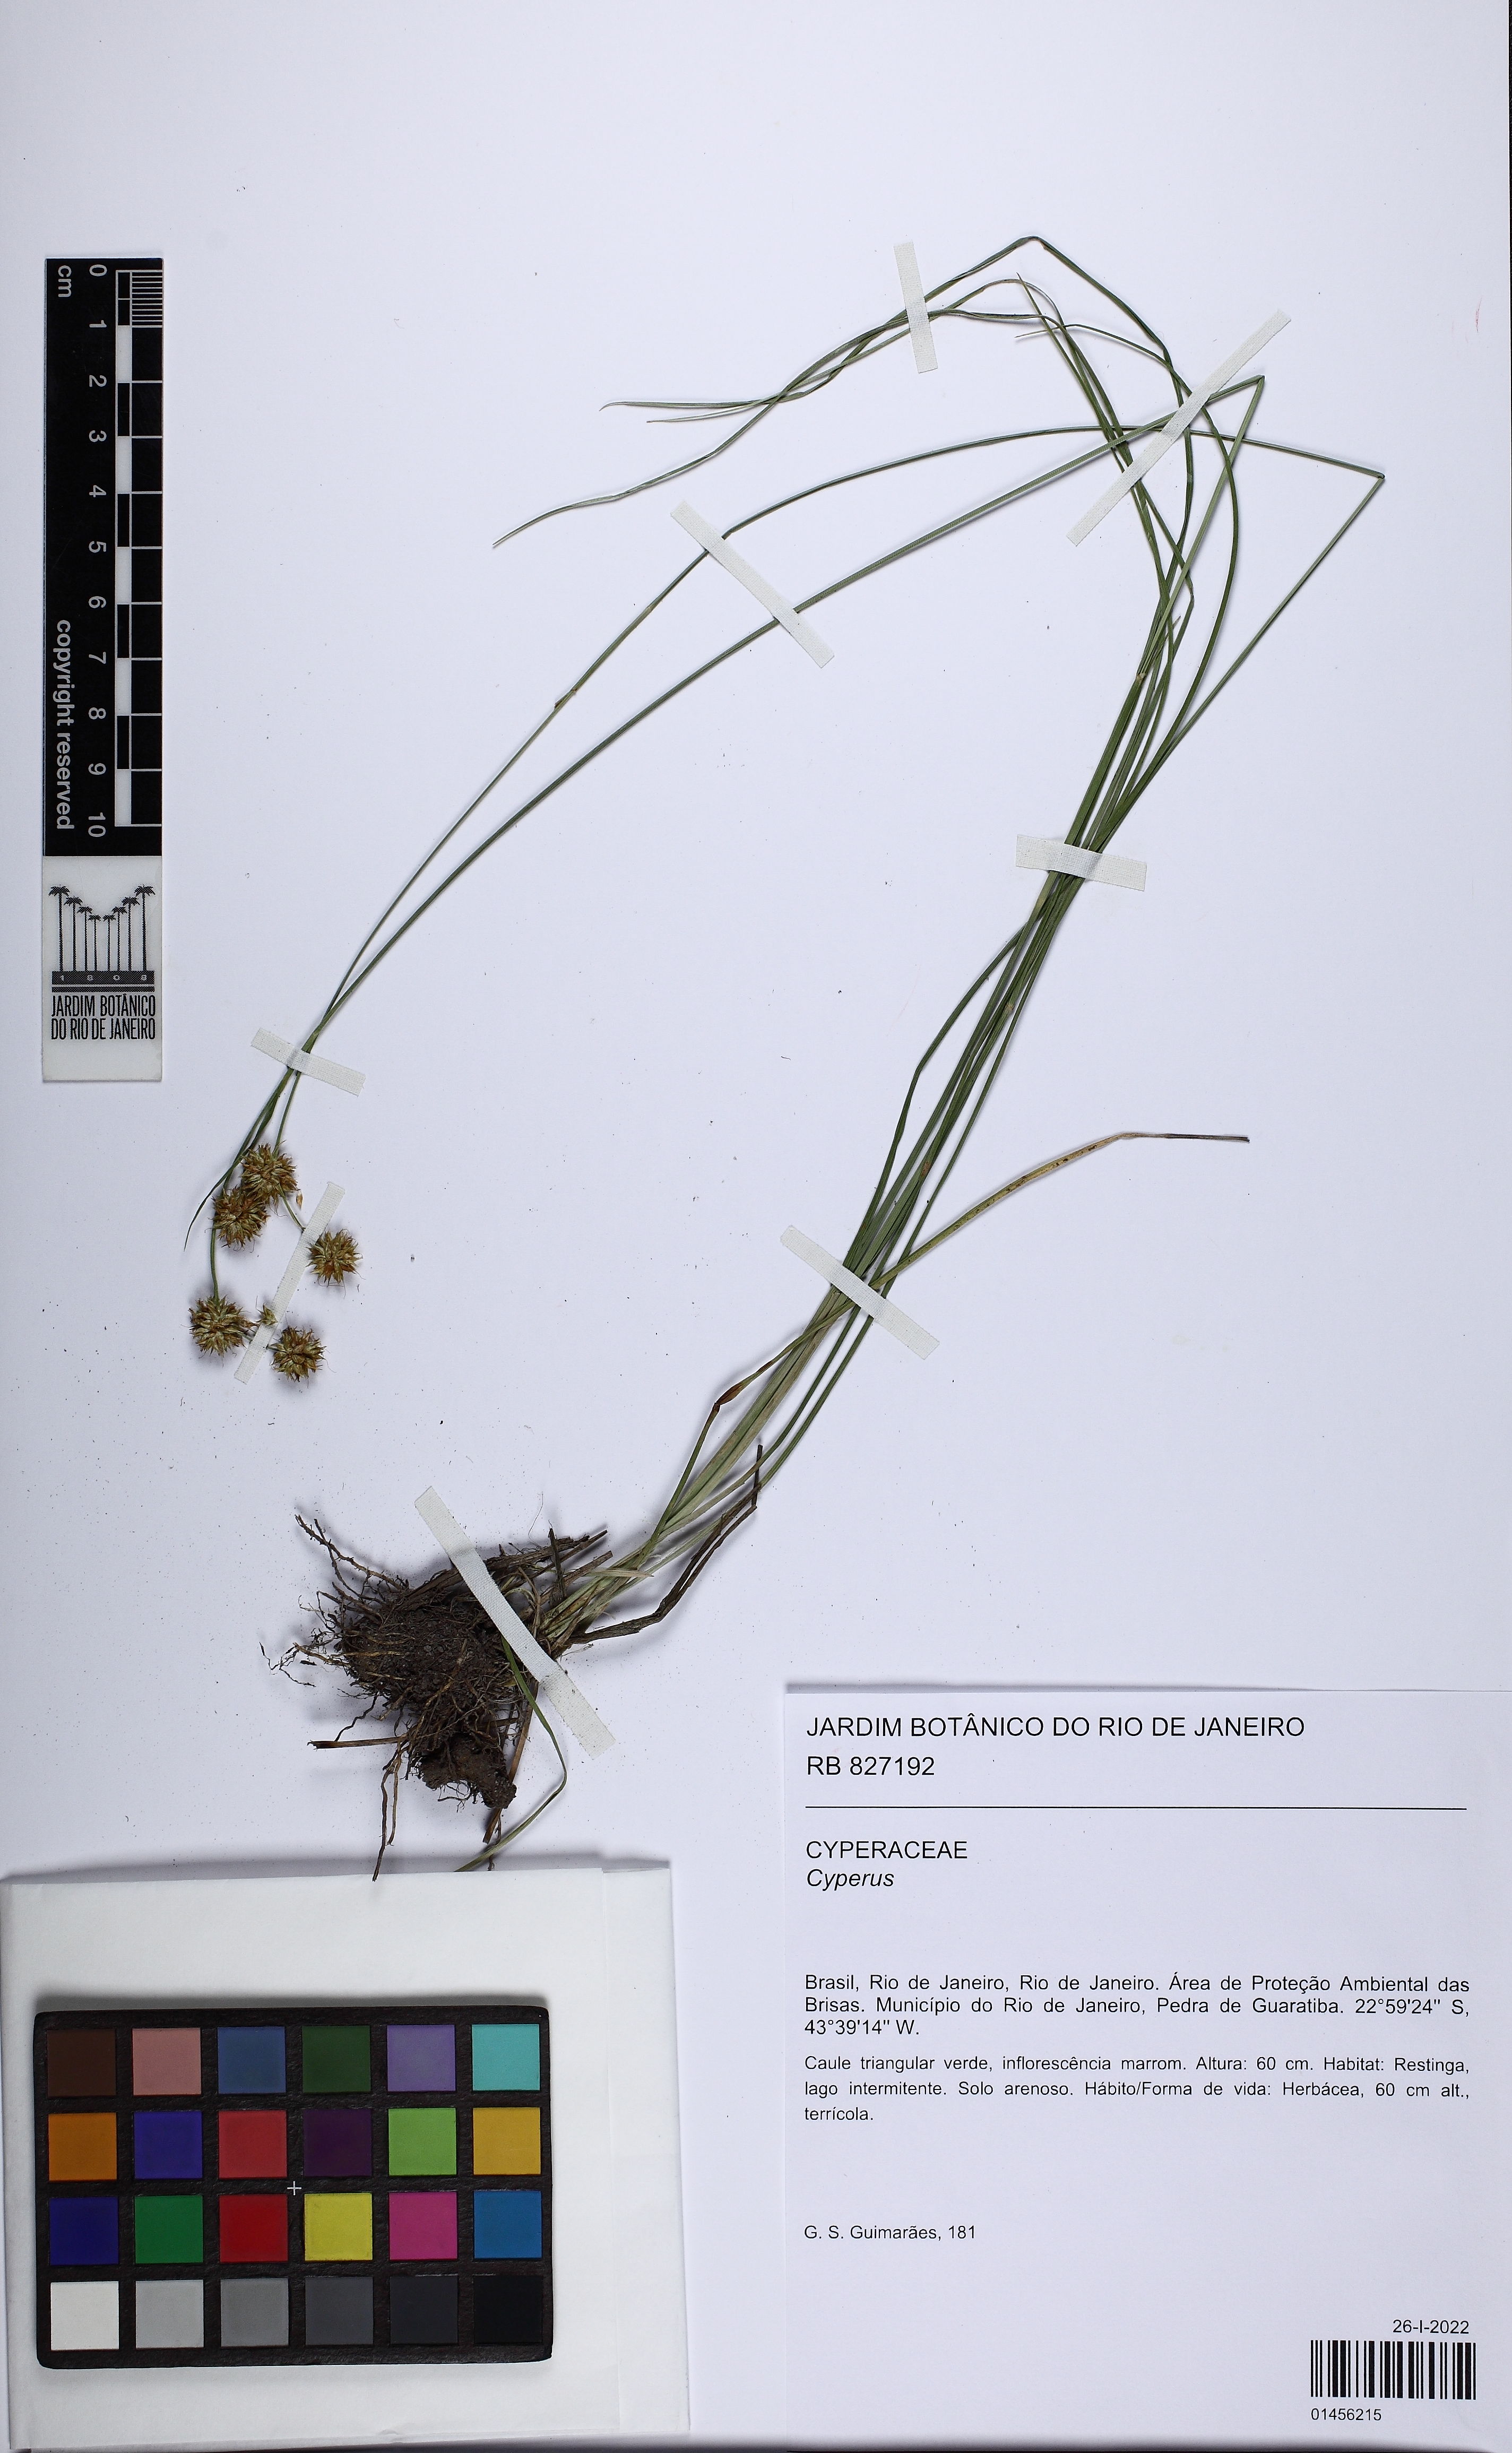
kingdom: Plantae
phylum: Tracheophyta
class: Liliopsida
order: Poales
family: Cyperaceae
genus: Cyperus
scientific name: Cyperus
